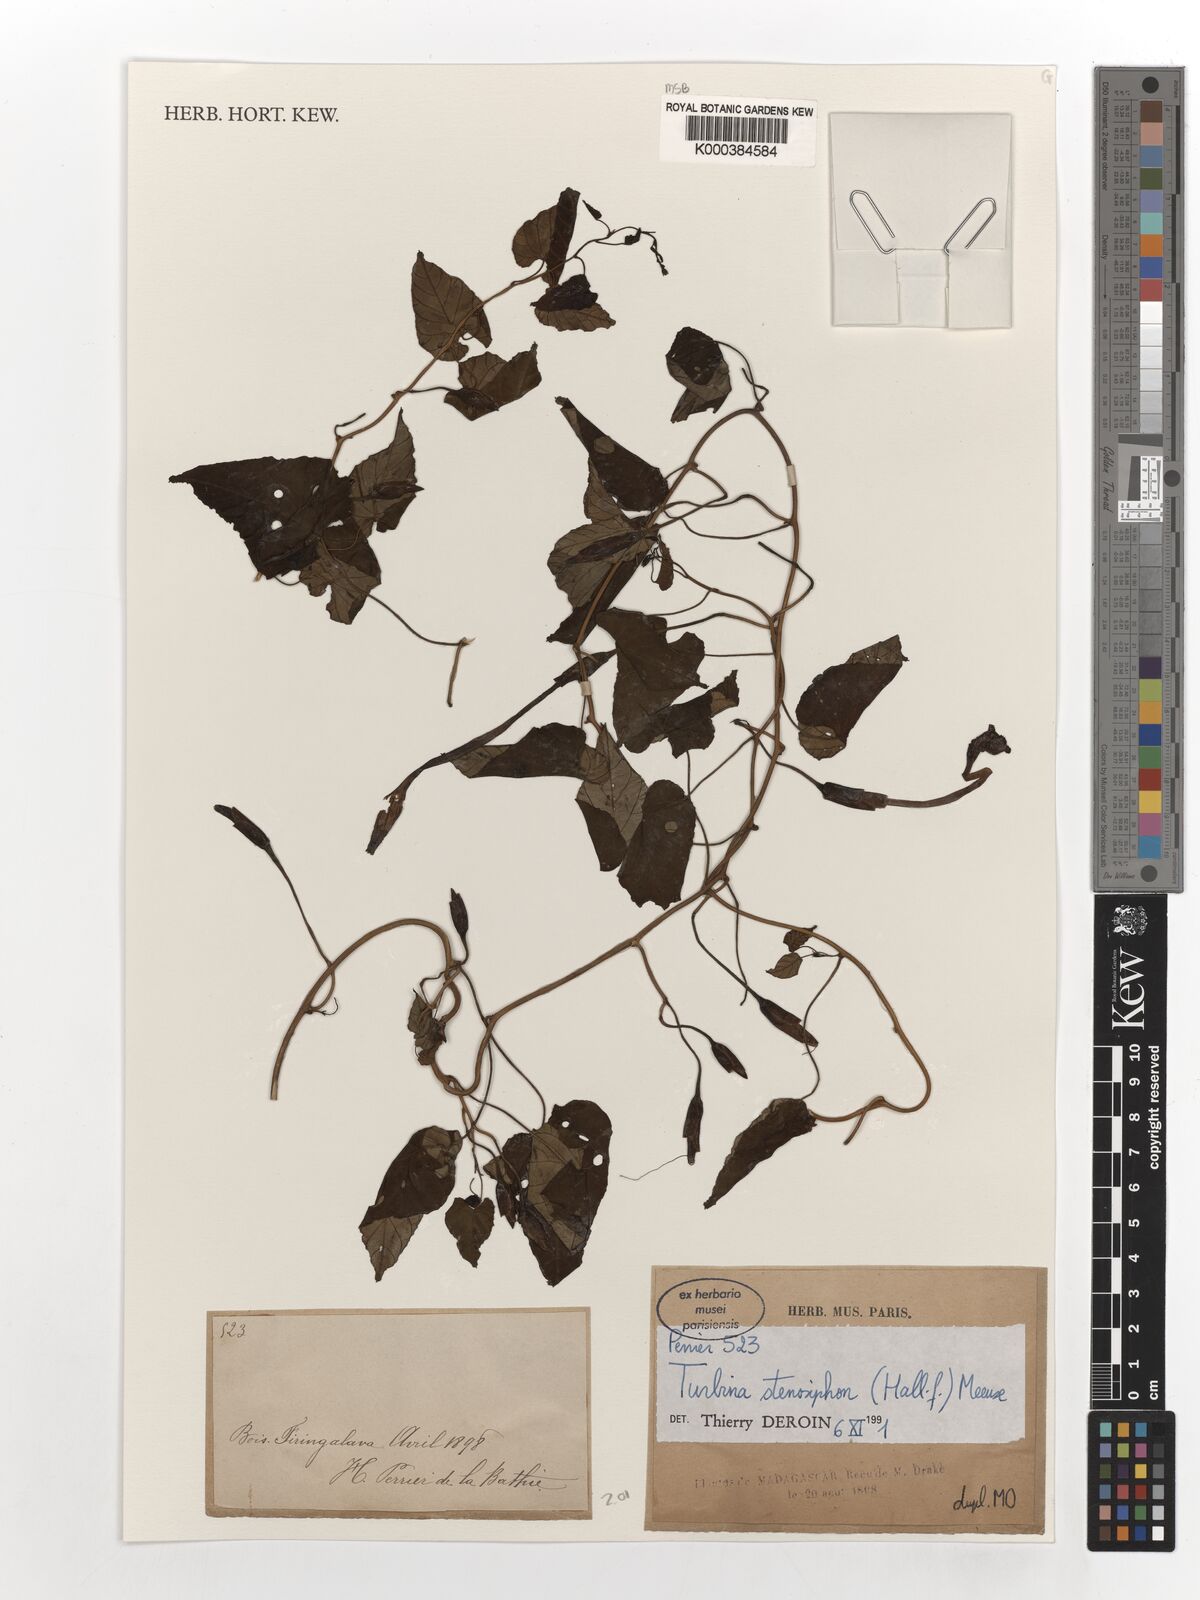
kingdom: Plantae
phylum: Tracheophyta
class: Magnoliopsida
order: Solanales
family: Convolvulaceae
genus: Ipomoea
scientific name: Ipomoea stenosiphon
